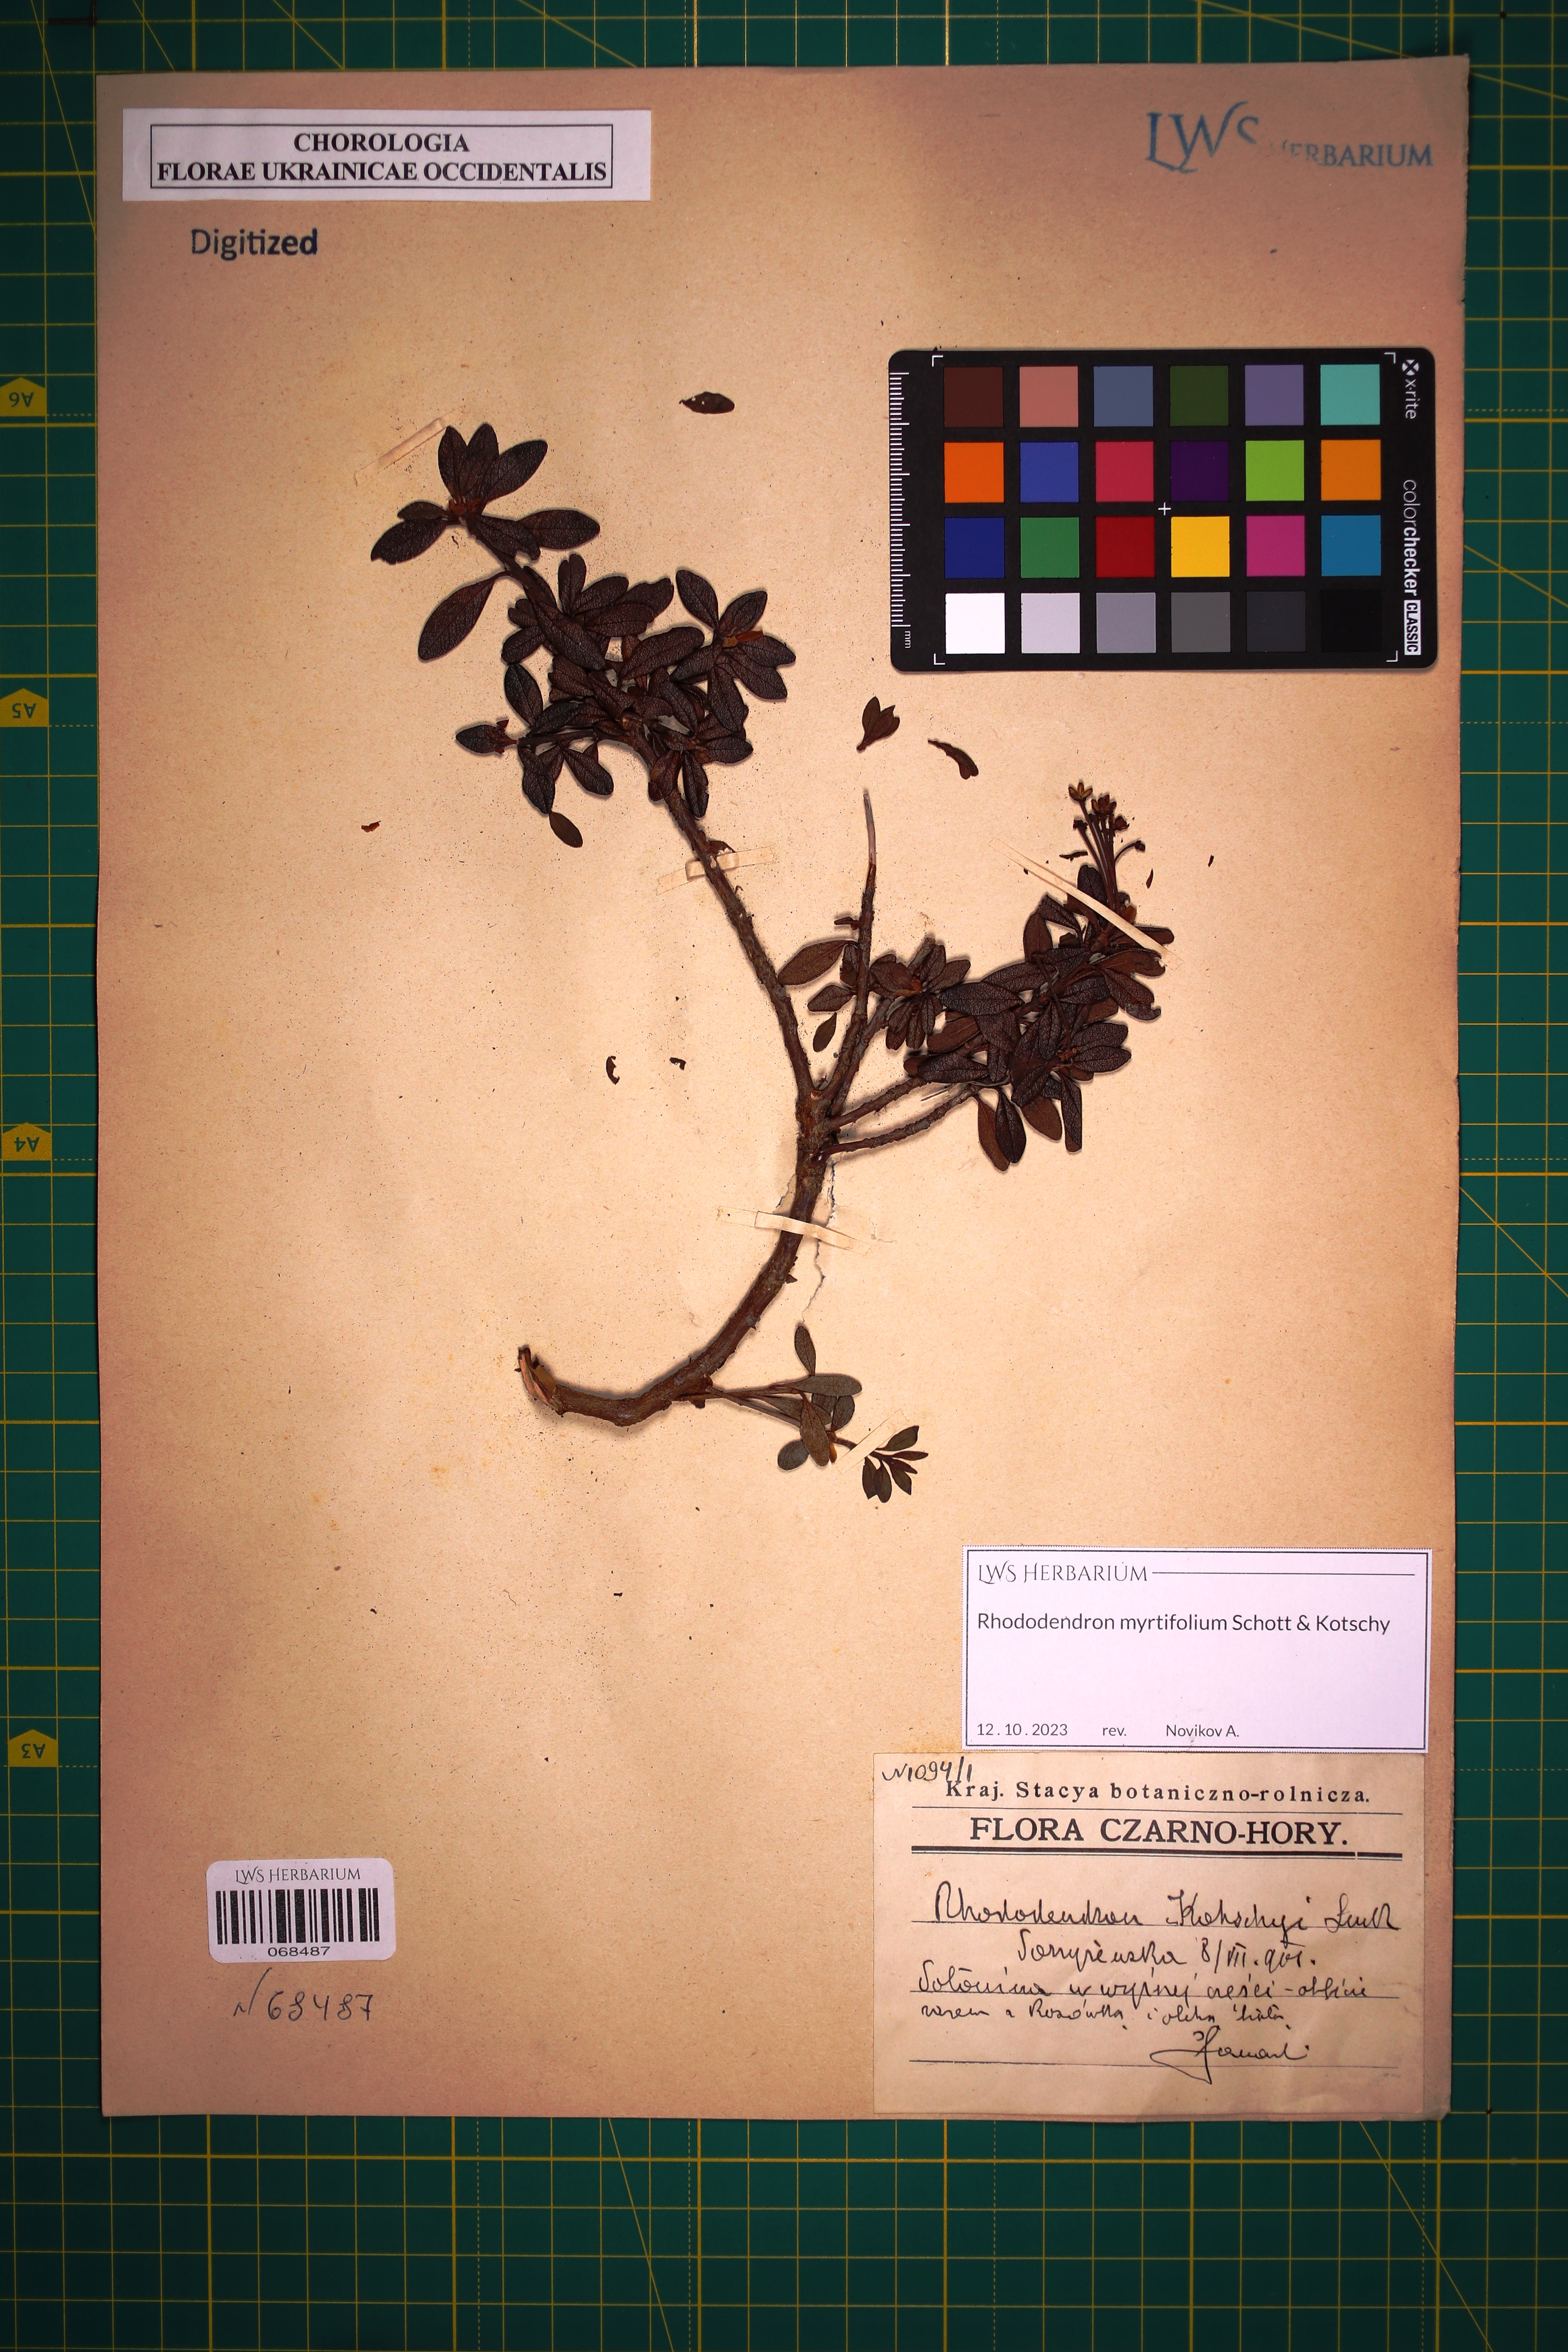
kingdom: Plantae
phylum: Tracheophyta
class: Magnoliopsida
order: Ericales
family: Ericaceae
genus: Rhododendron
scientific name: Rhododendron kotschyi
